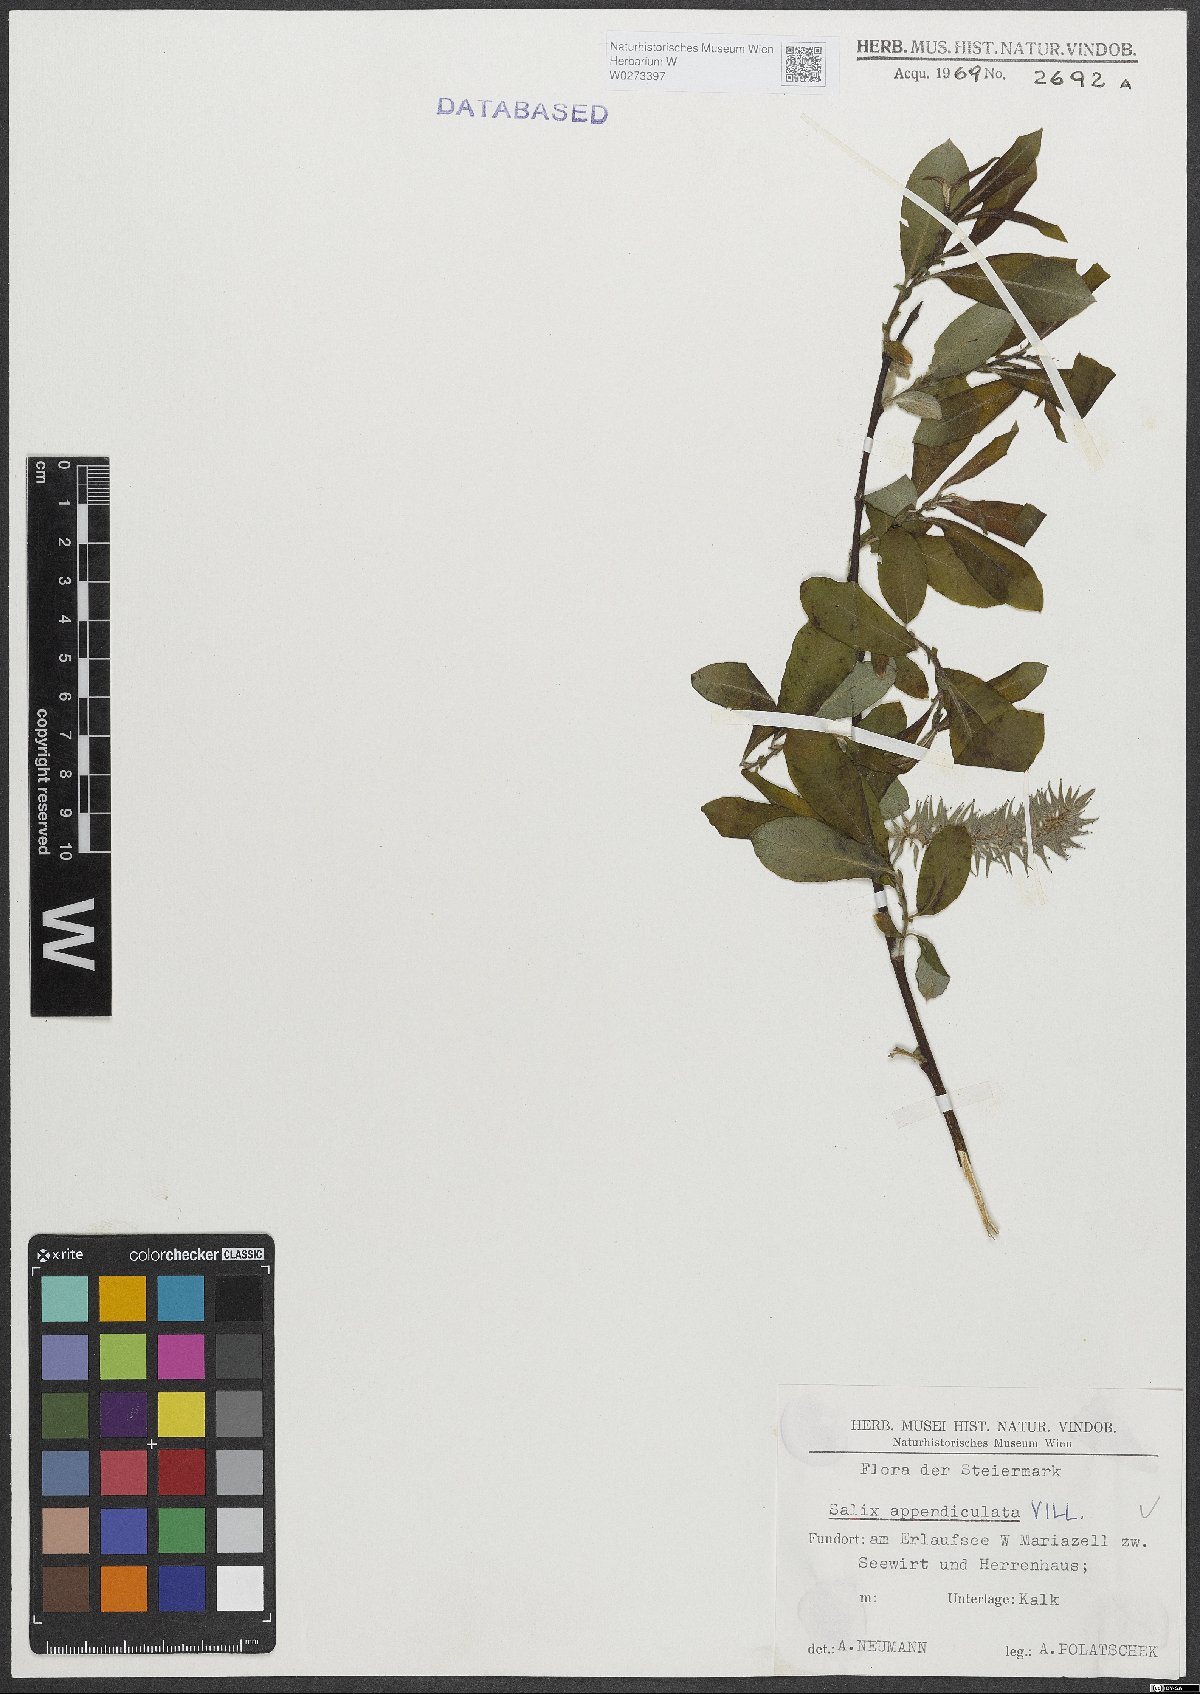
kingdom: Plantae
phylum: Tracheophyta
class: Magnoliopsida
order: Malpighiales
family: Salicaceae
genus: Salix
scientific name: Salix appendiculata
